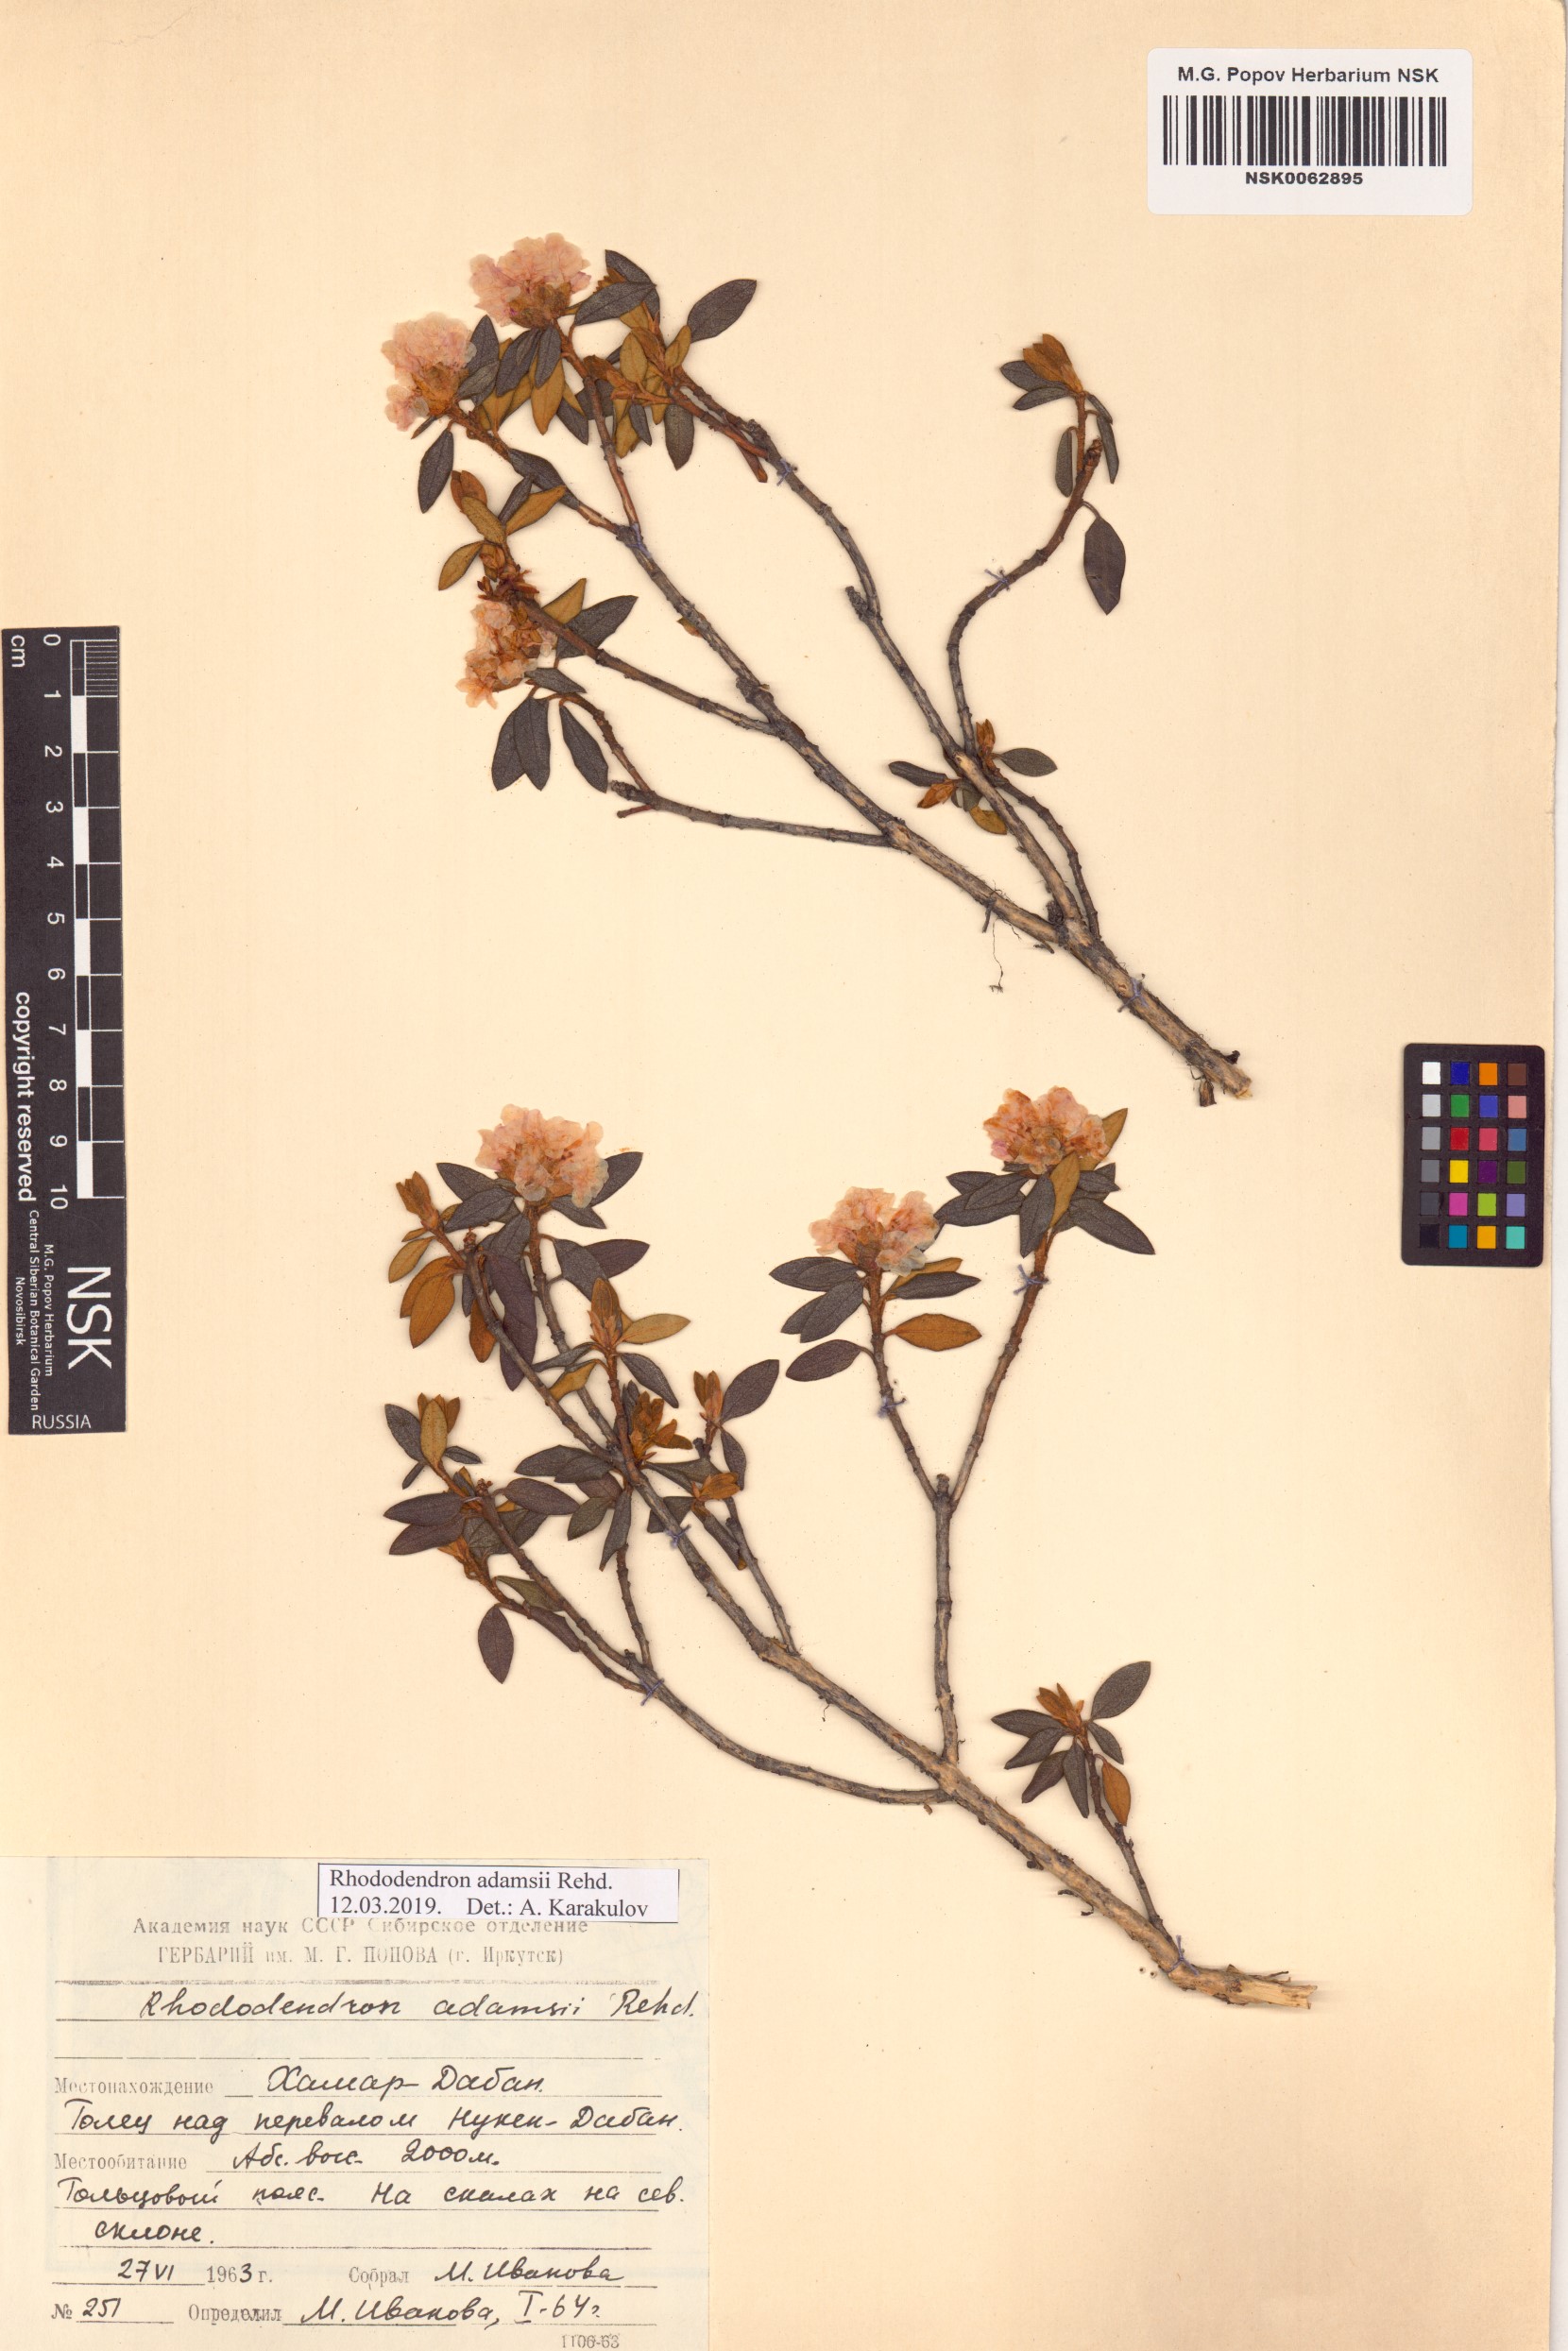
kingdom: Plantae
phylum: Tracheophyta
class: Magnoliopsida
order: Ericales
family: Ericaceae
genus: Rhododendron
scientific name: Rhododendron adamsii
